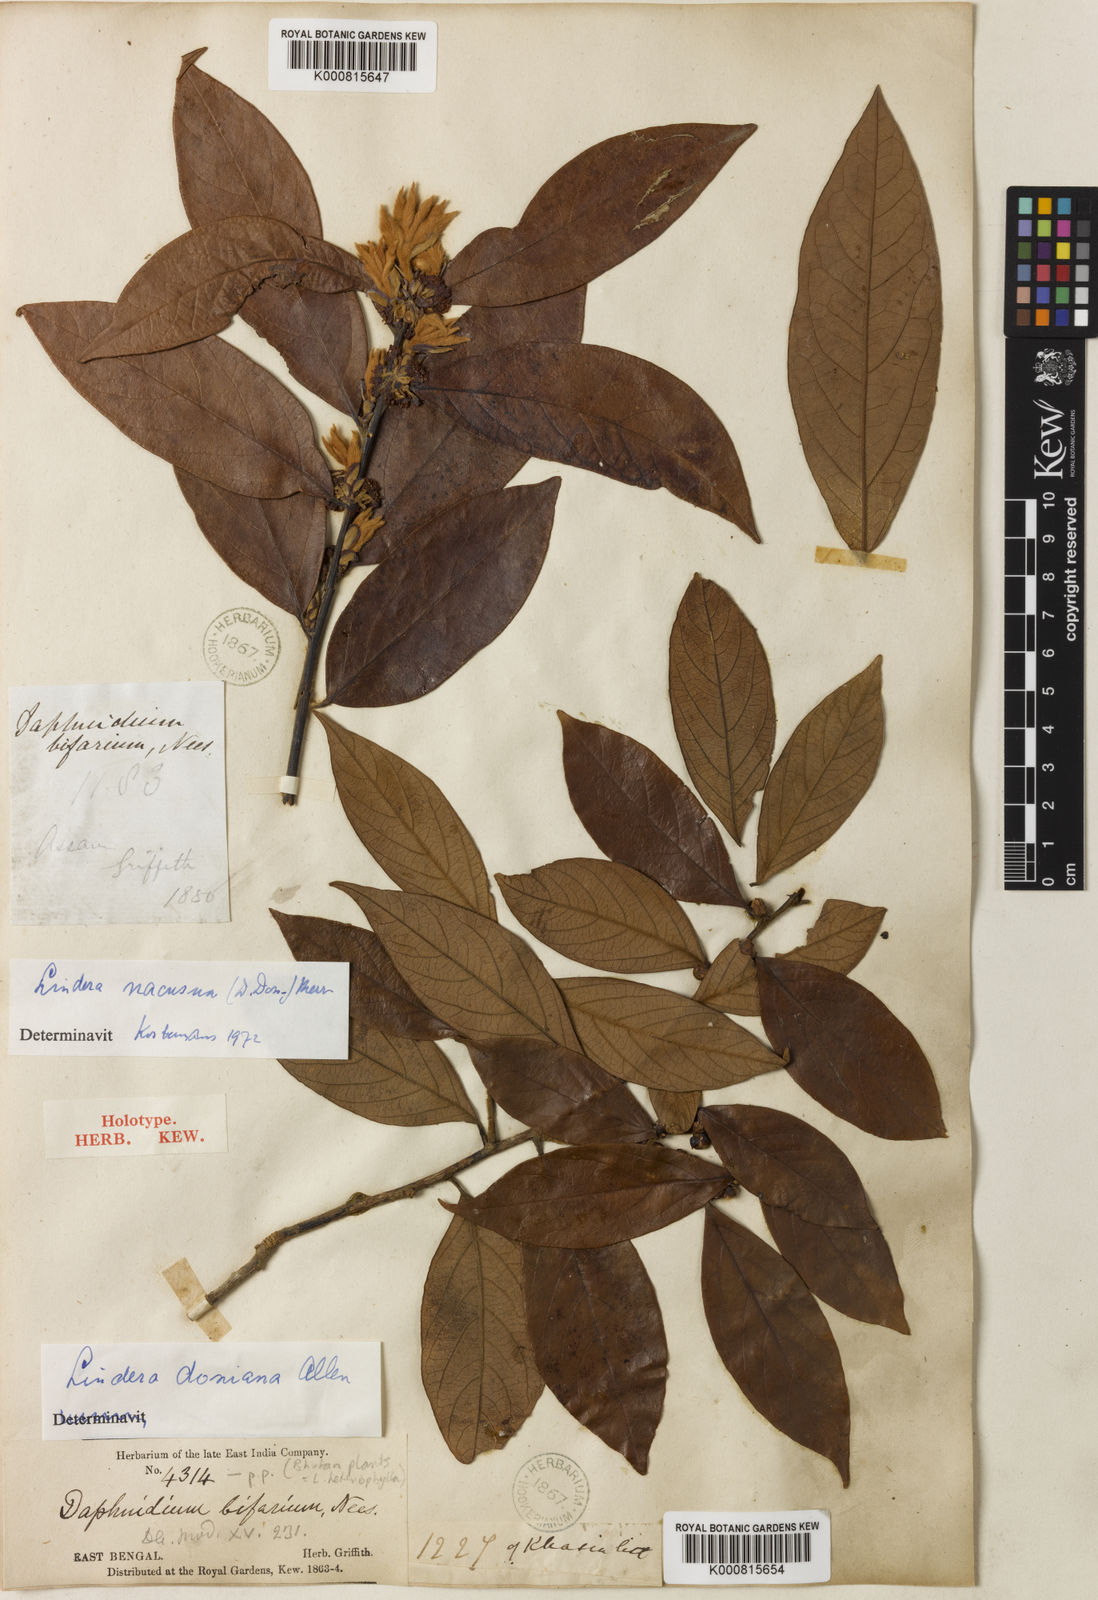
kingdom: Plantae
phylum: Tracheophyta
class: Magnoliopsida
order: Laurales
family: Lauraceae
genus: Lindera
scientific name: Lindera nacusua
